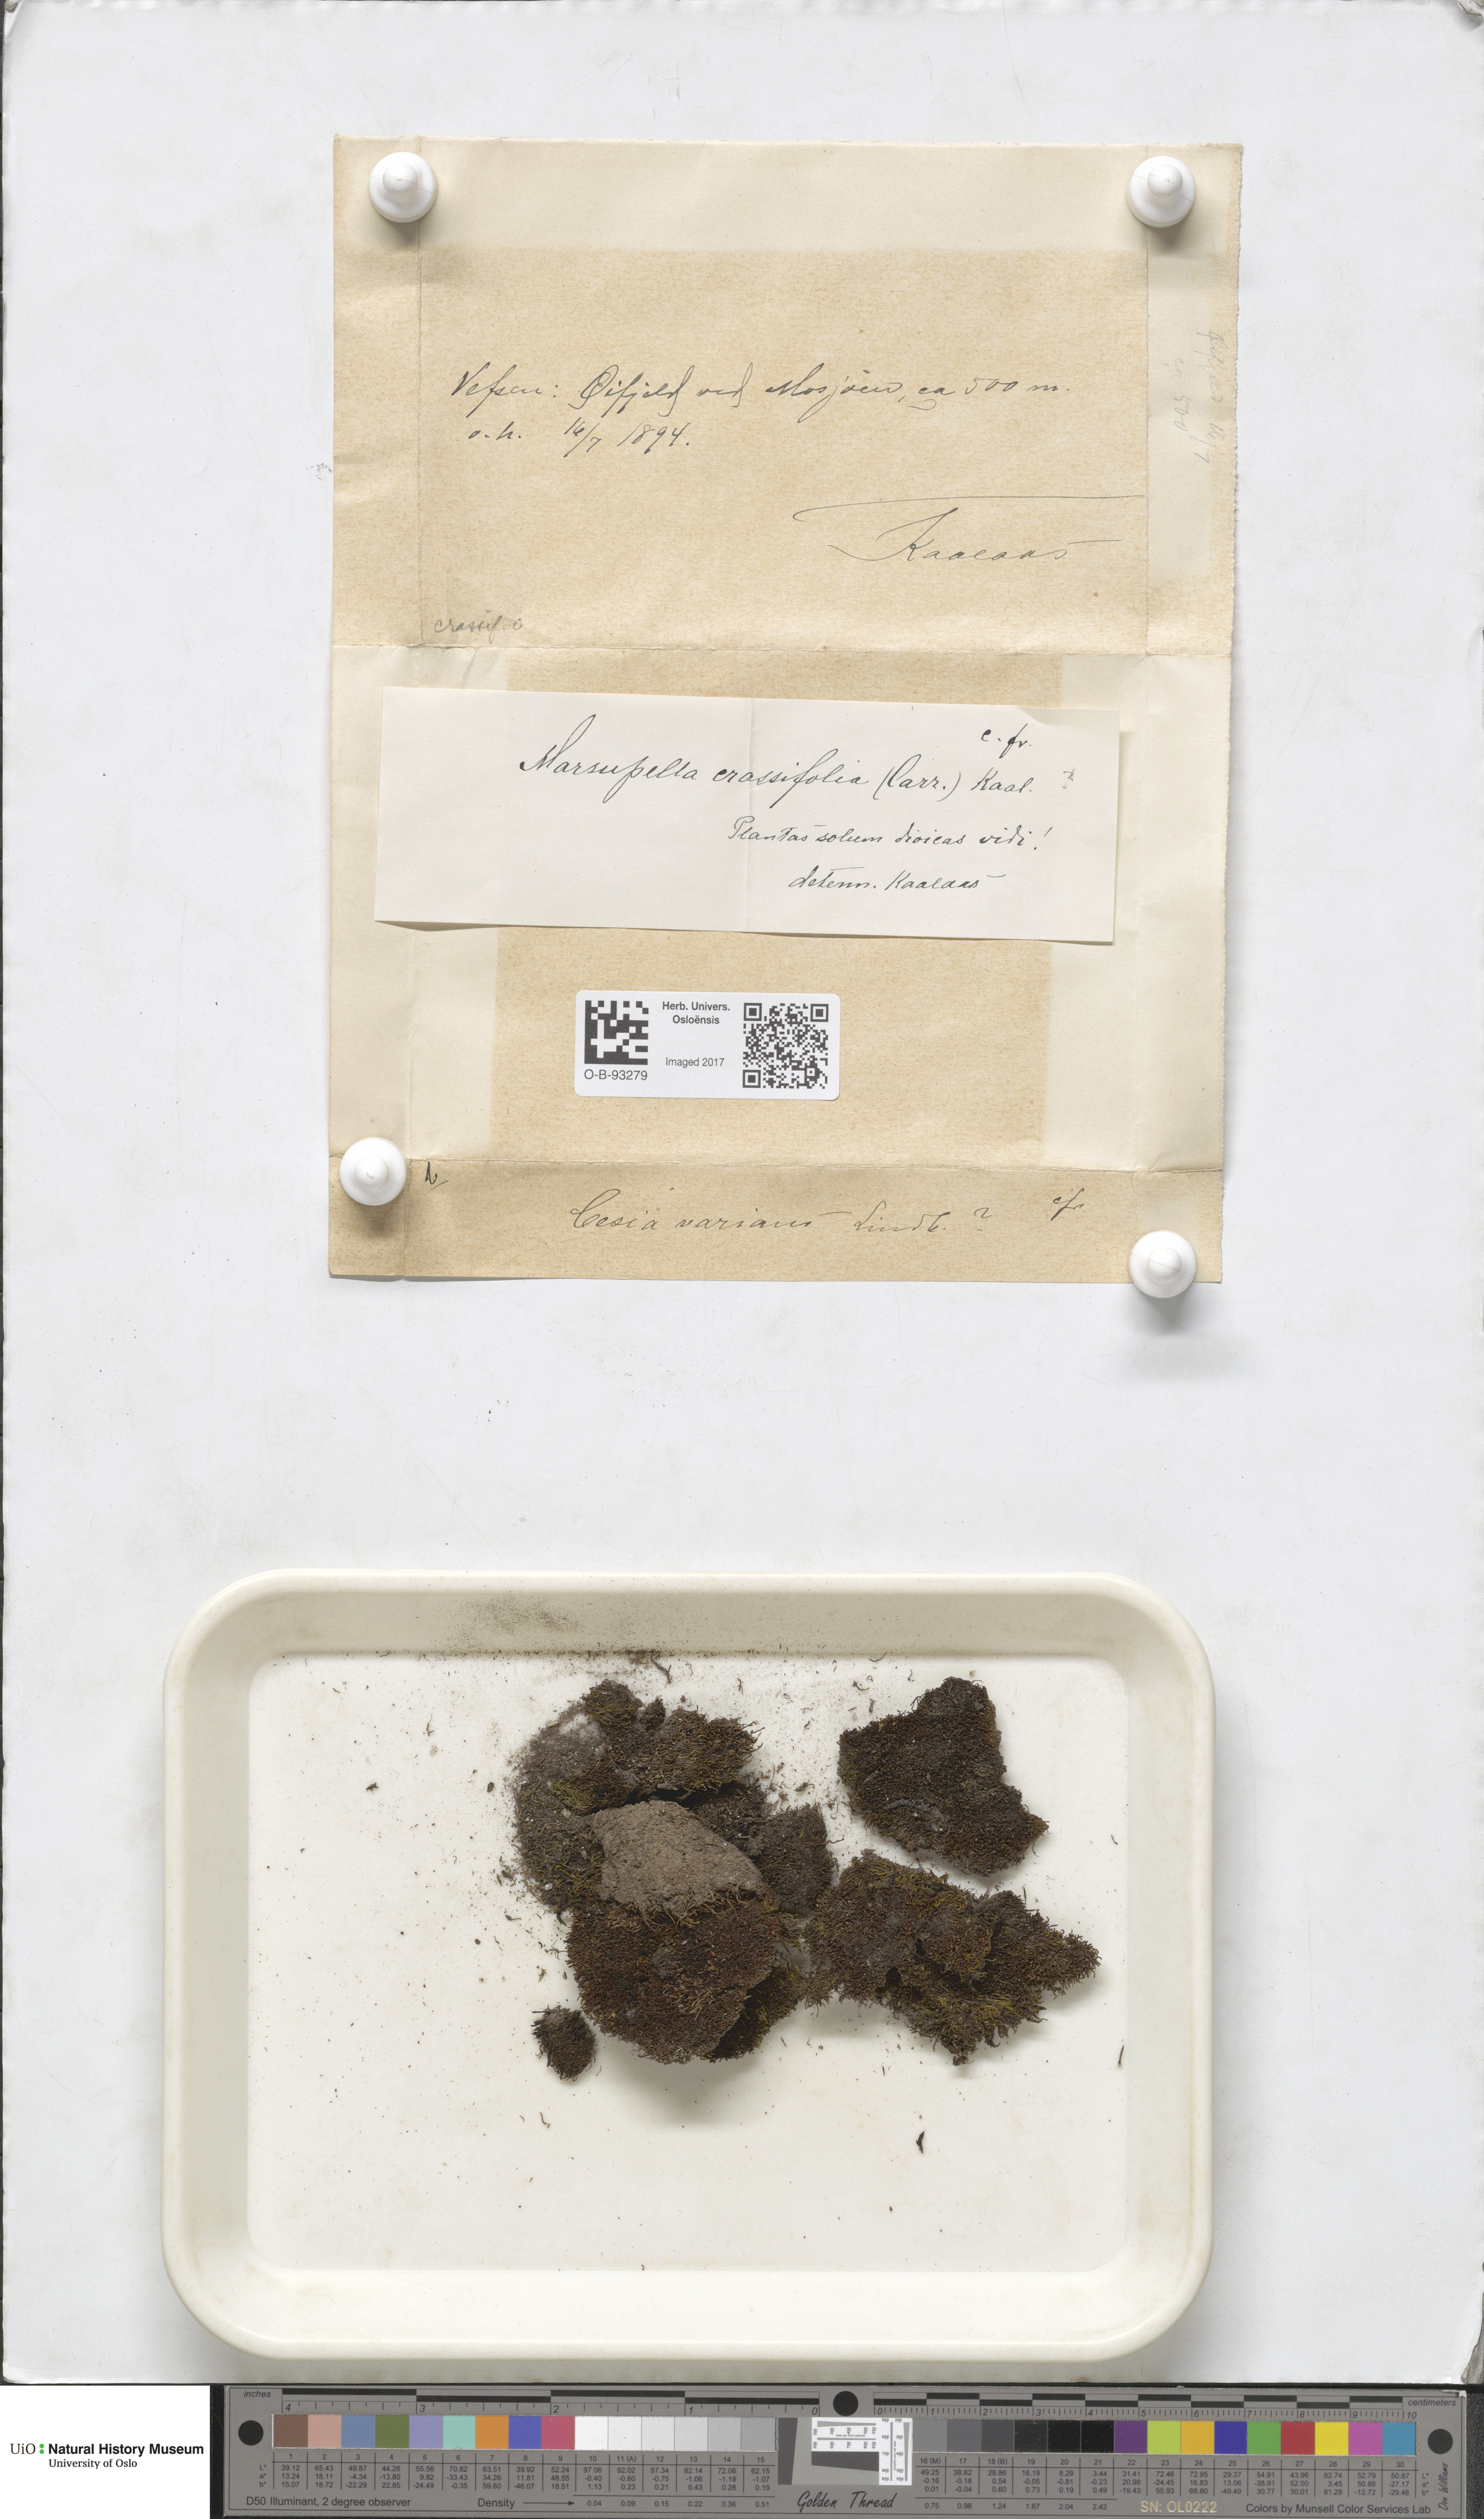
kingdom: Plantae
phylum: Marchantiophyta
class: Jungermanniopsida
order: Jungermanniales
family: Gymnomitriaceae
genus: Gymnomitrion
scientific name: Gymnomitrion brevissimum
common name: Snow rustwort
